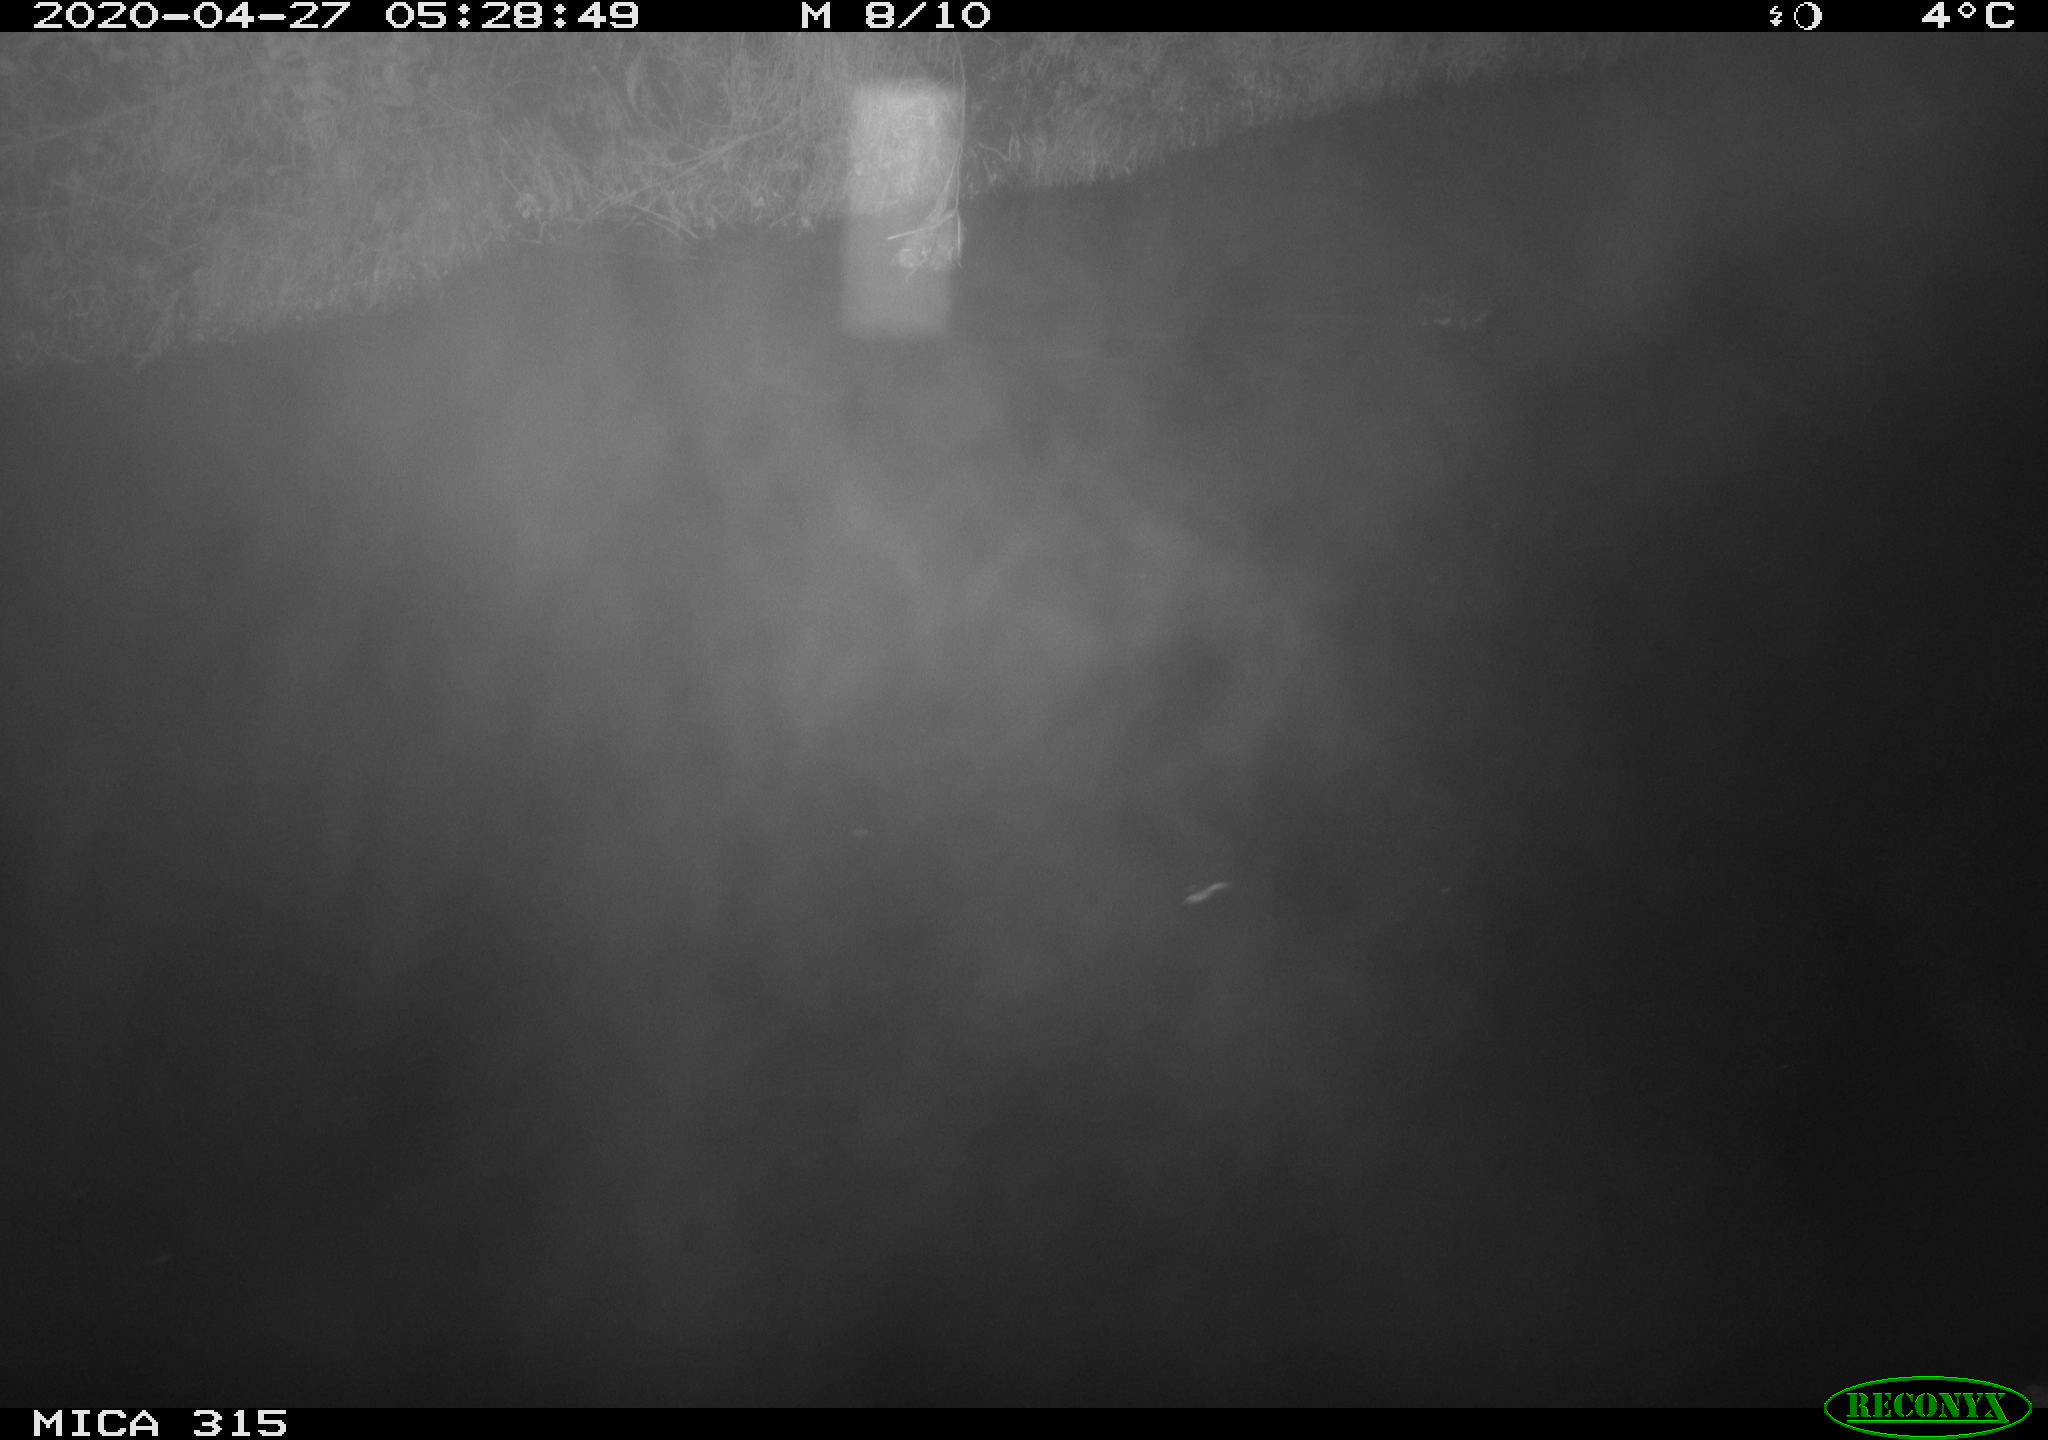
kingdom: Animalia
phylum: Chordata
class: Aves
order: Gruiformes
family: Rallidae
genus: Gallinula
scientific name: Gallinula chloropus
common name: Common moorhen
